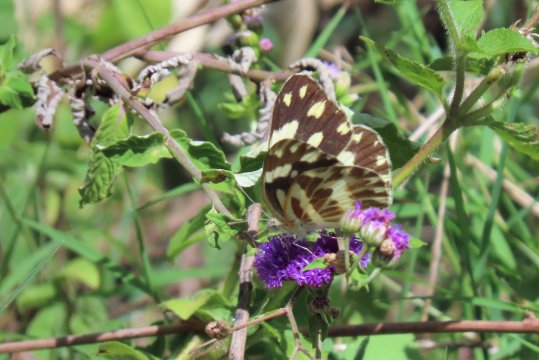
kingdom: Animalia
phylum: Arthropoda
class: Insecta
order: Lepidoptera
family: Pieridae
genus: Pinacopteryx
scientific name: Pinacopteryx eriphia
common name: Zebra White
